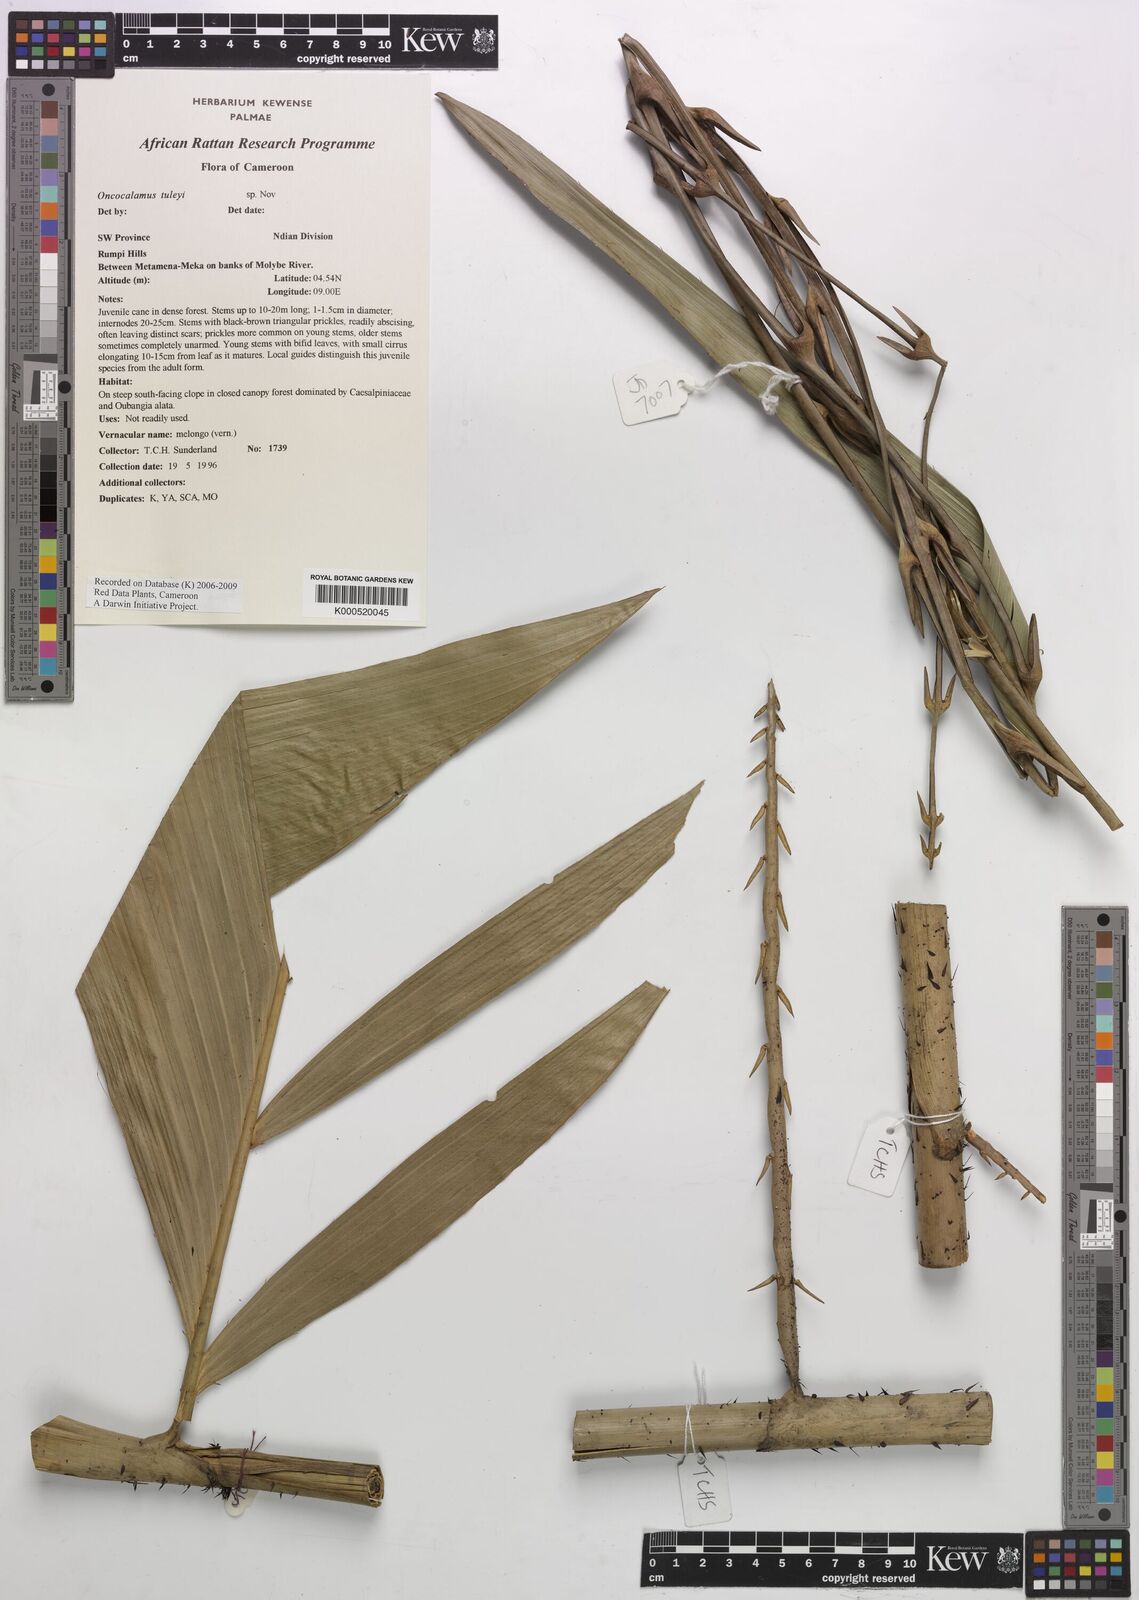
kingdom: Plantae
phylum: Tracheophyta
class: Liliopsida
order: Arecales
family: Arecaceae
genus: Oncocalamus
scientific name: Oncocalamus tuleyi
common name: Rattan
